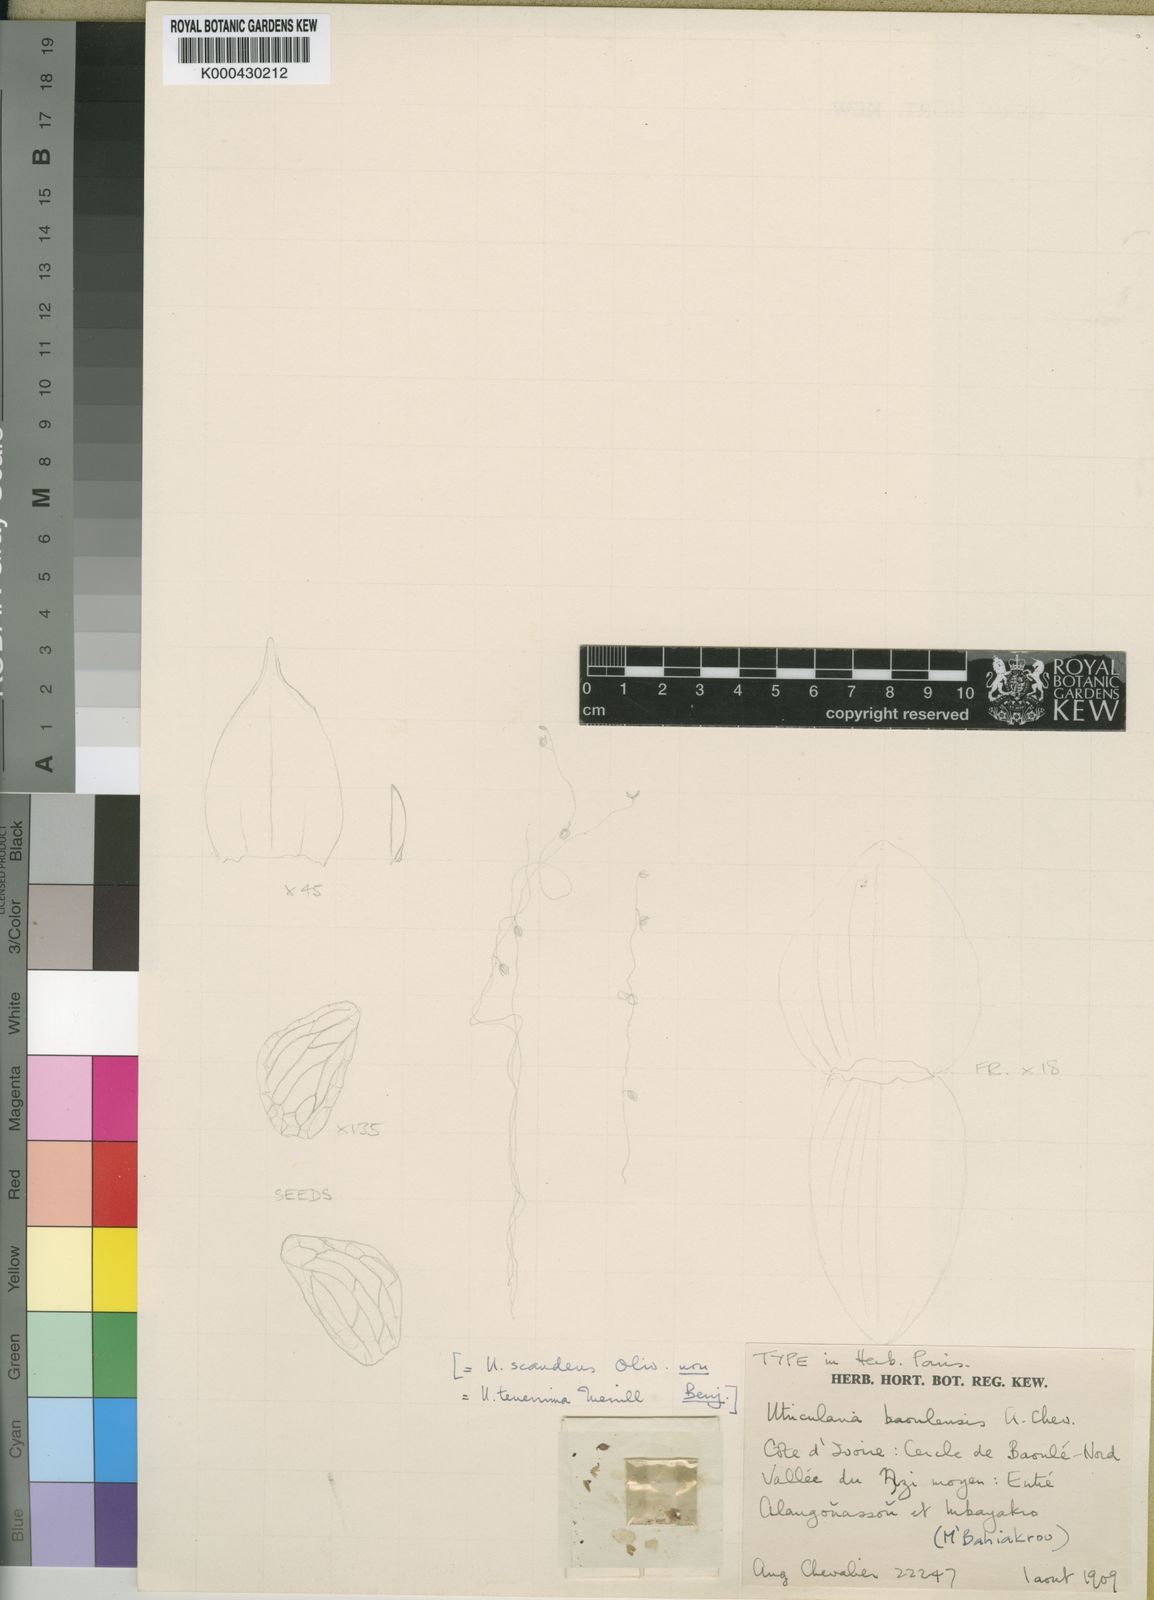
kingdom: Plantae
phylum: Tracheophyta
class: Magnoliopsida
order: Lamiales
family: Lentibulariaceae
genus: Utricularia
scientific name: Utricularia foveolata
